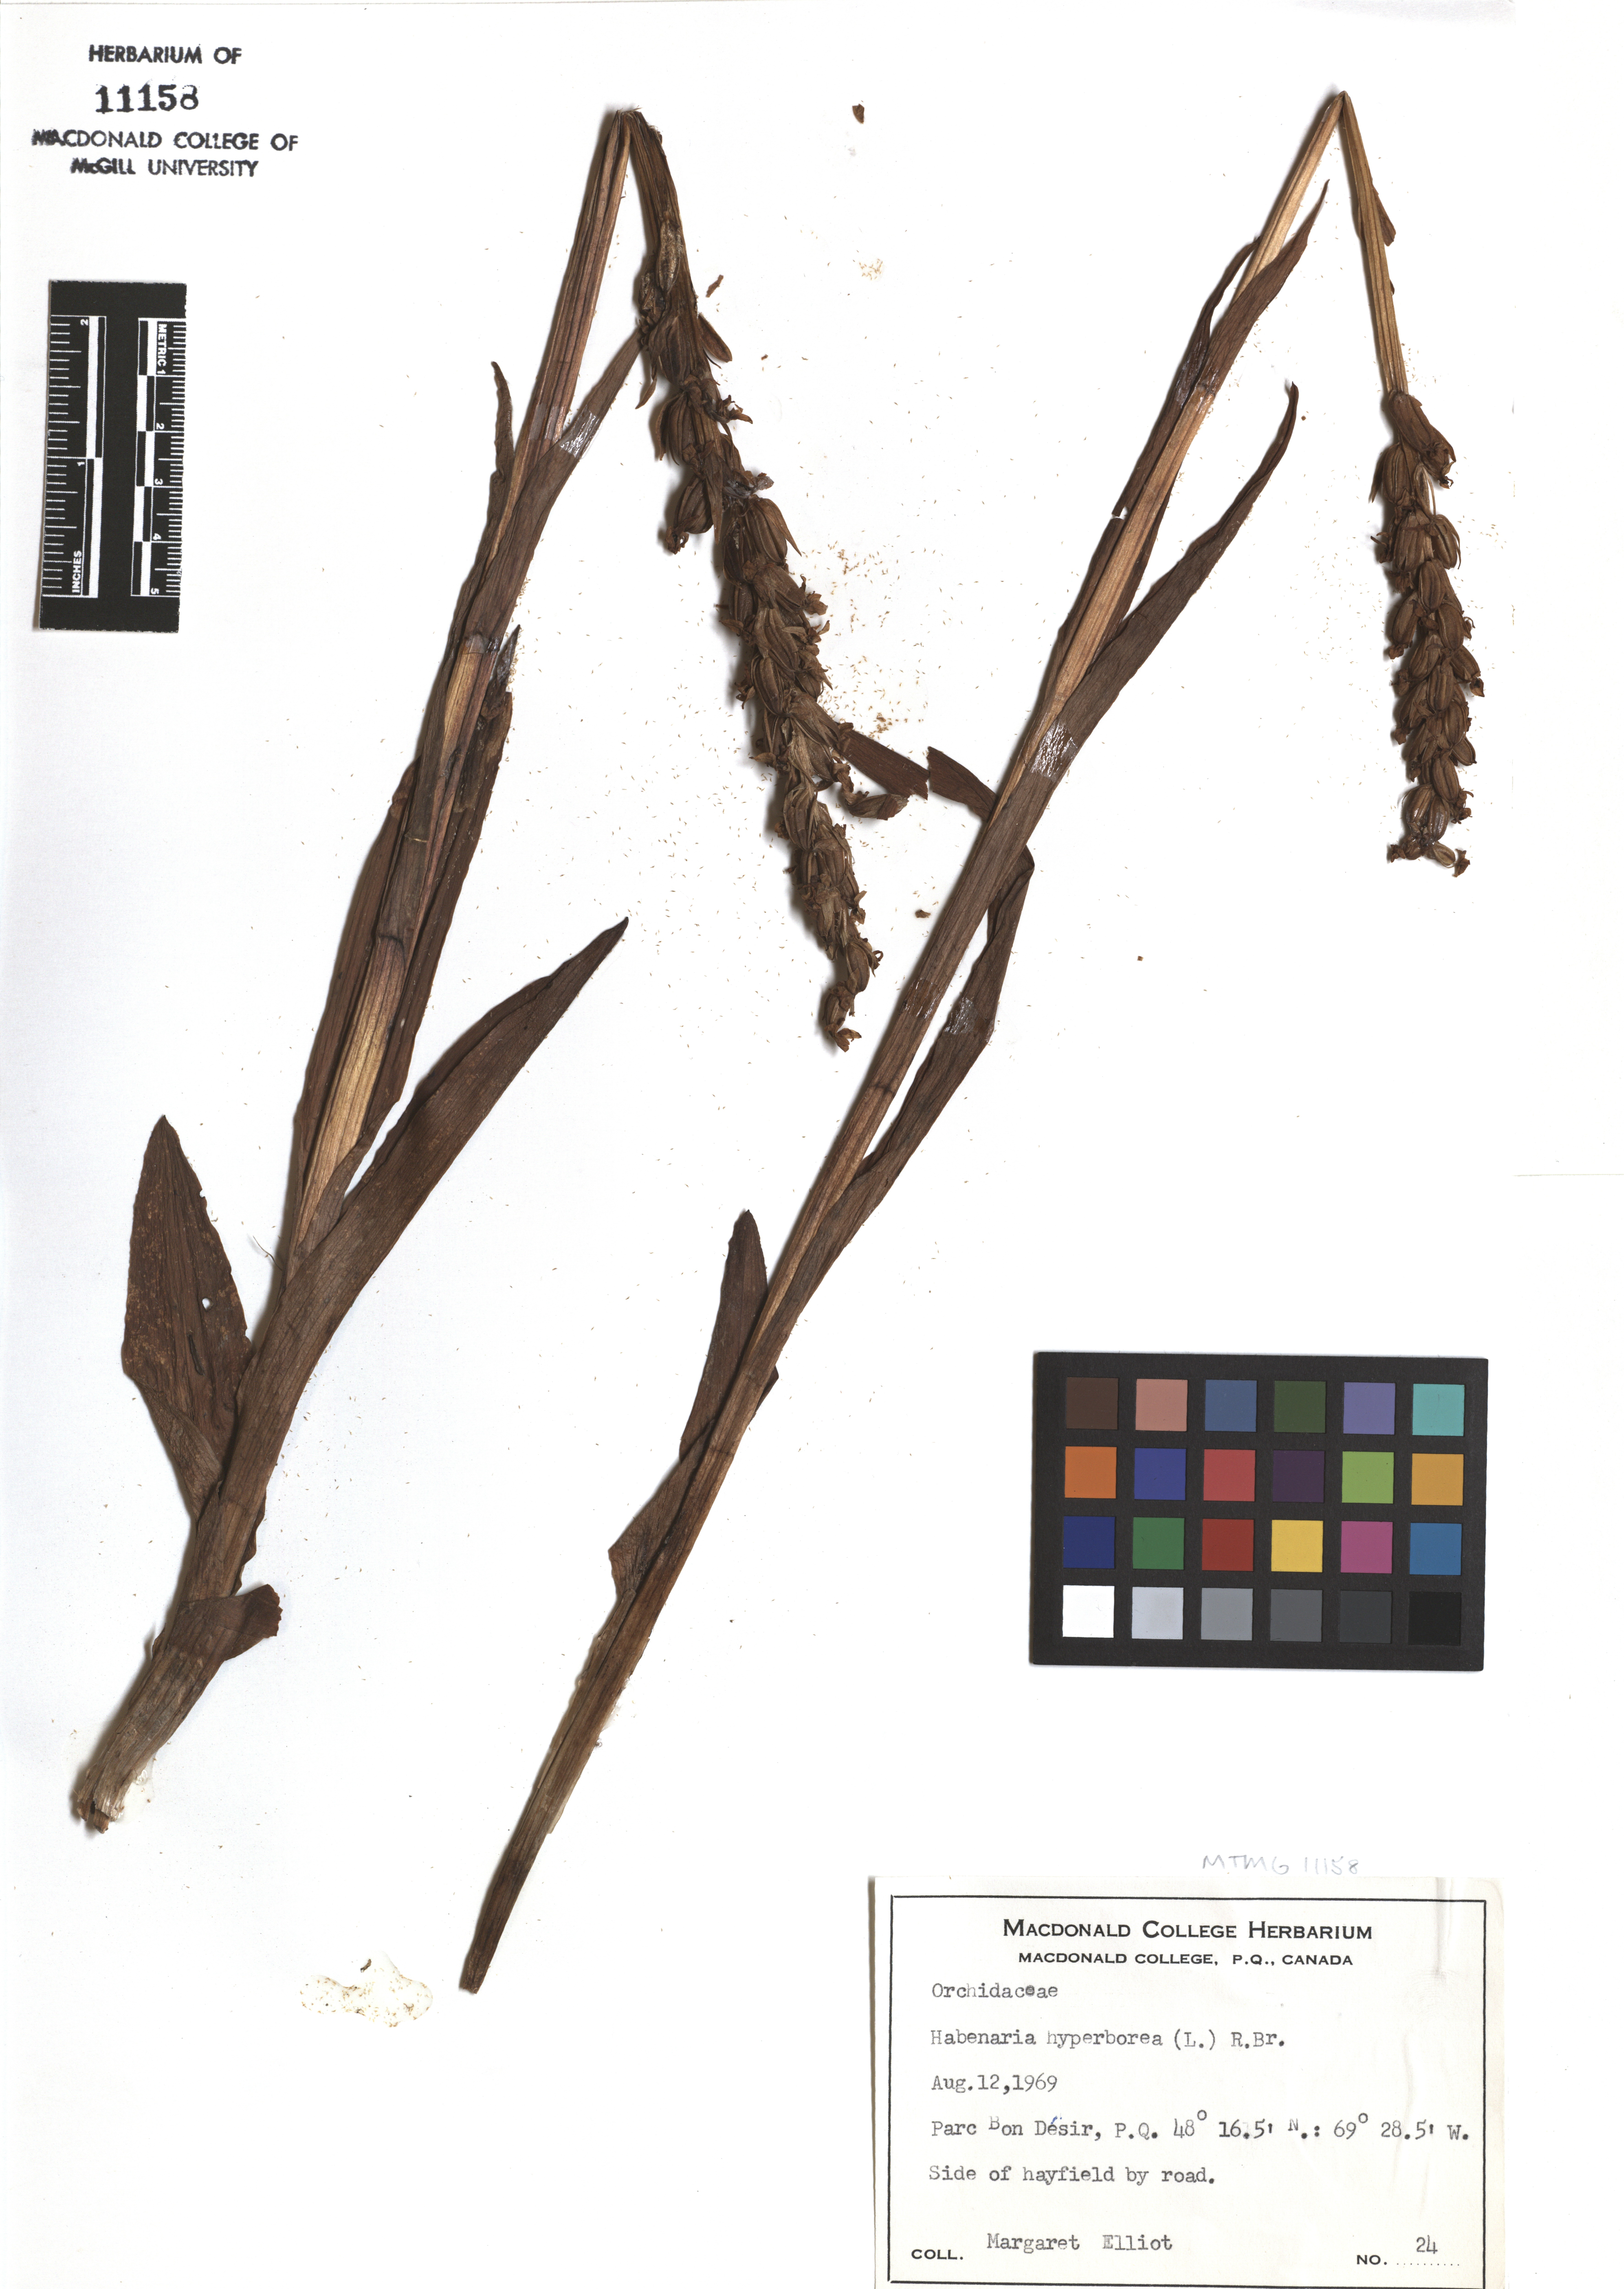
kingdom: Plantae
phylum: Tracheophyta
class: Liliopsida
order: Asparagales
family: Orchidaceae
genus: Platanthera
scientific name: Platanthera hyperborea
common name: Northern green orchid
